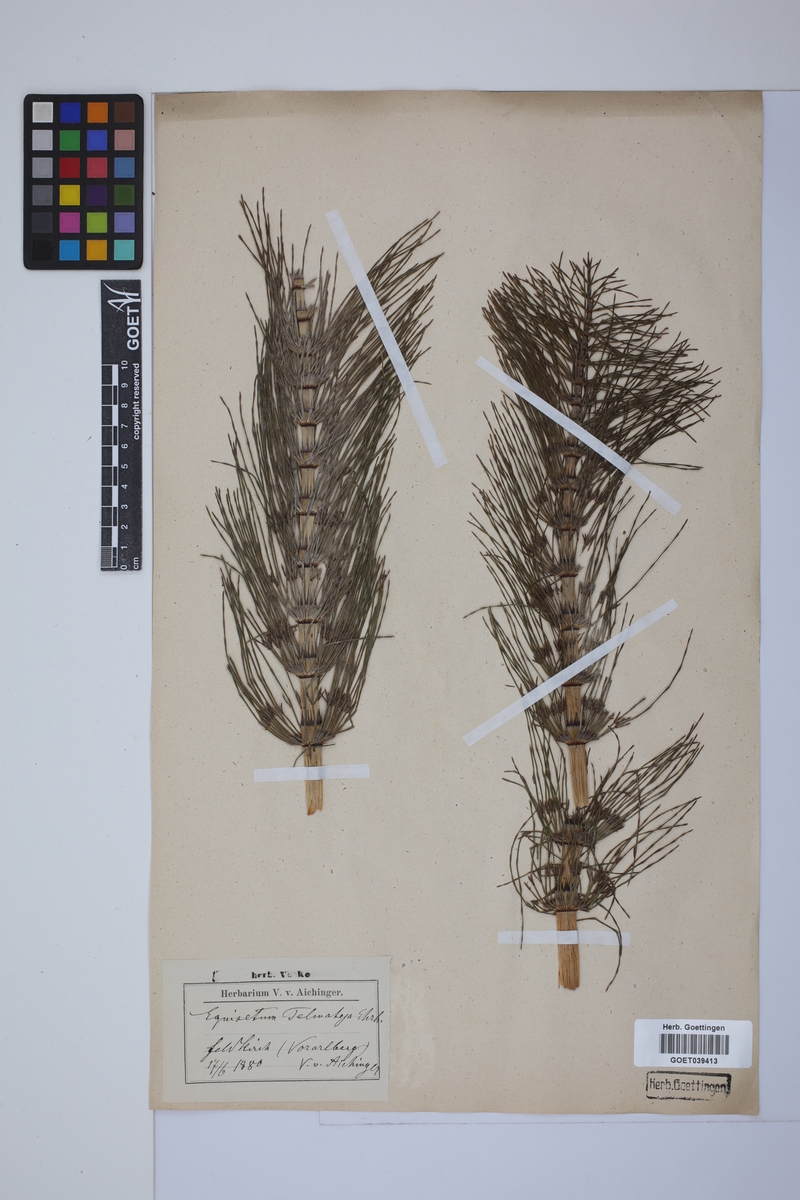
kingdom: Plantae
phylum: Tracheophyta
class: Polypodiopsida
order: Equisetales
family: Equisetaceae
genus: Equisetum
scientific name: Equisetum telmateia
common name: Great horsetail
